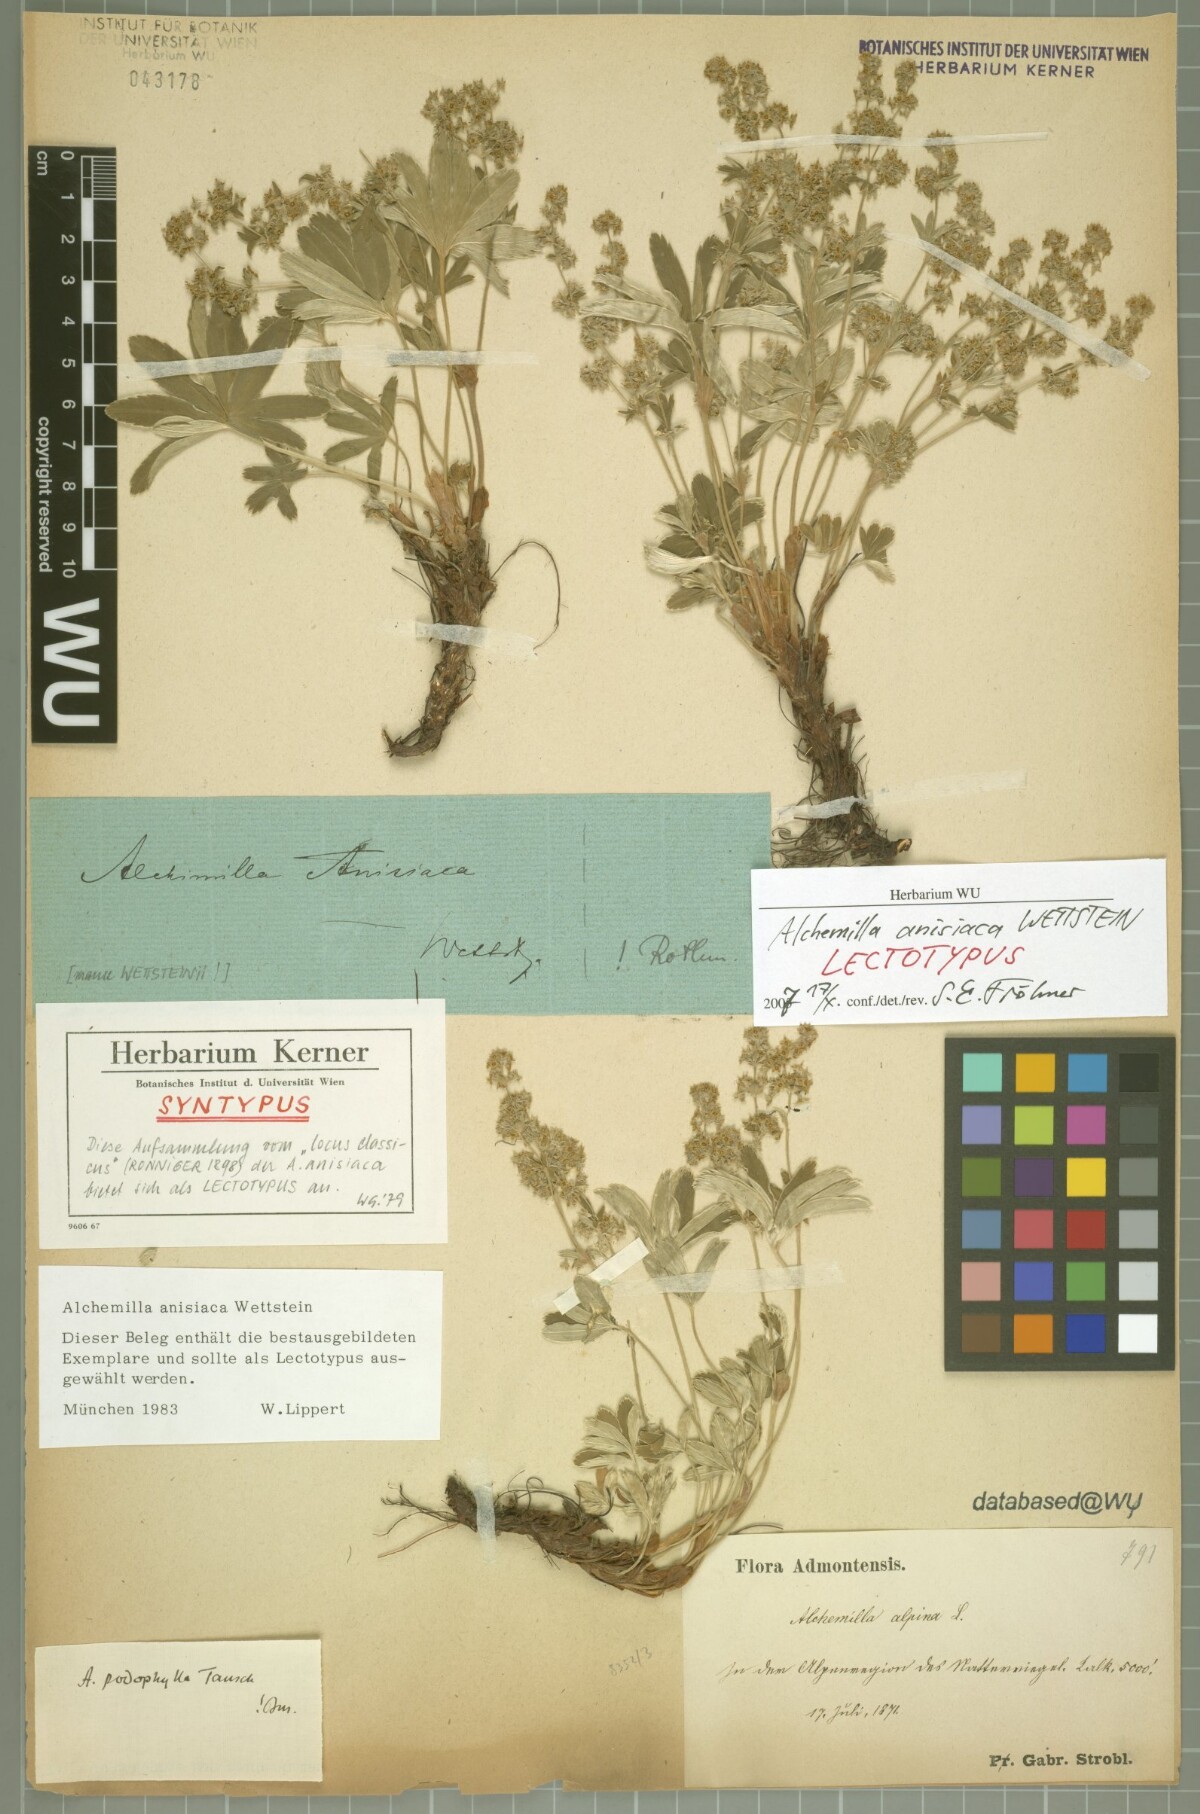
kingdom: Plantae
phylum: Tracheophyta
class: Magnoliopsida
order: Rosales
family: Rosaceae
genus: Alchemilla
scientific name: Alchemilla anisiaca
